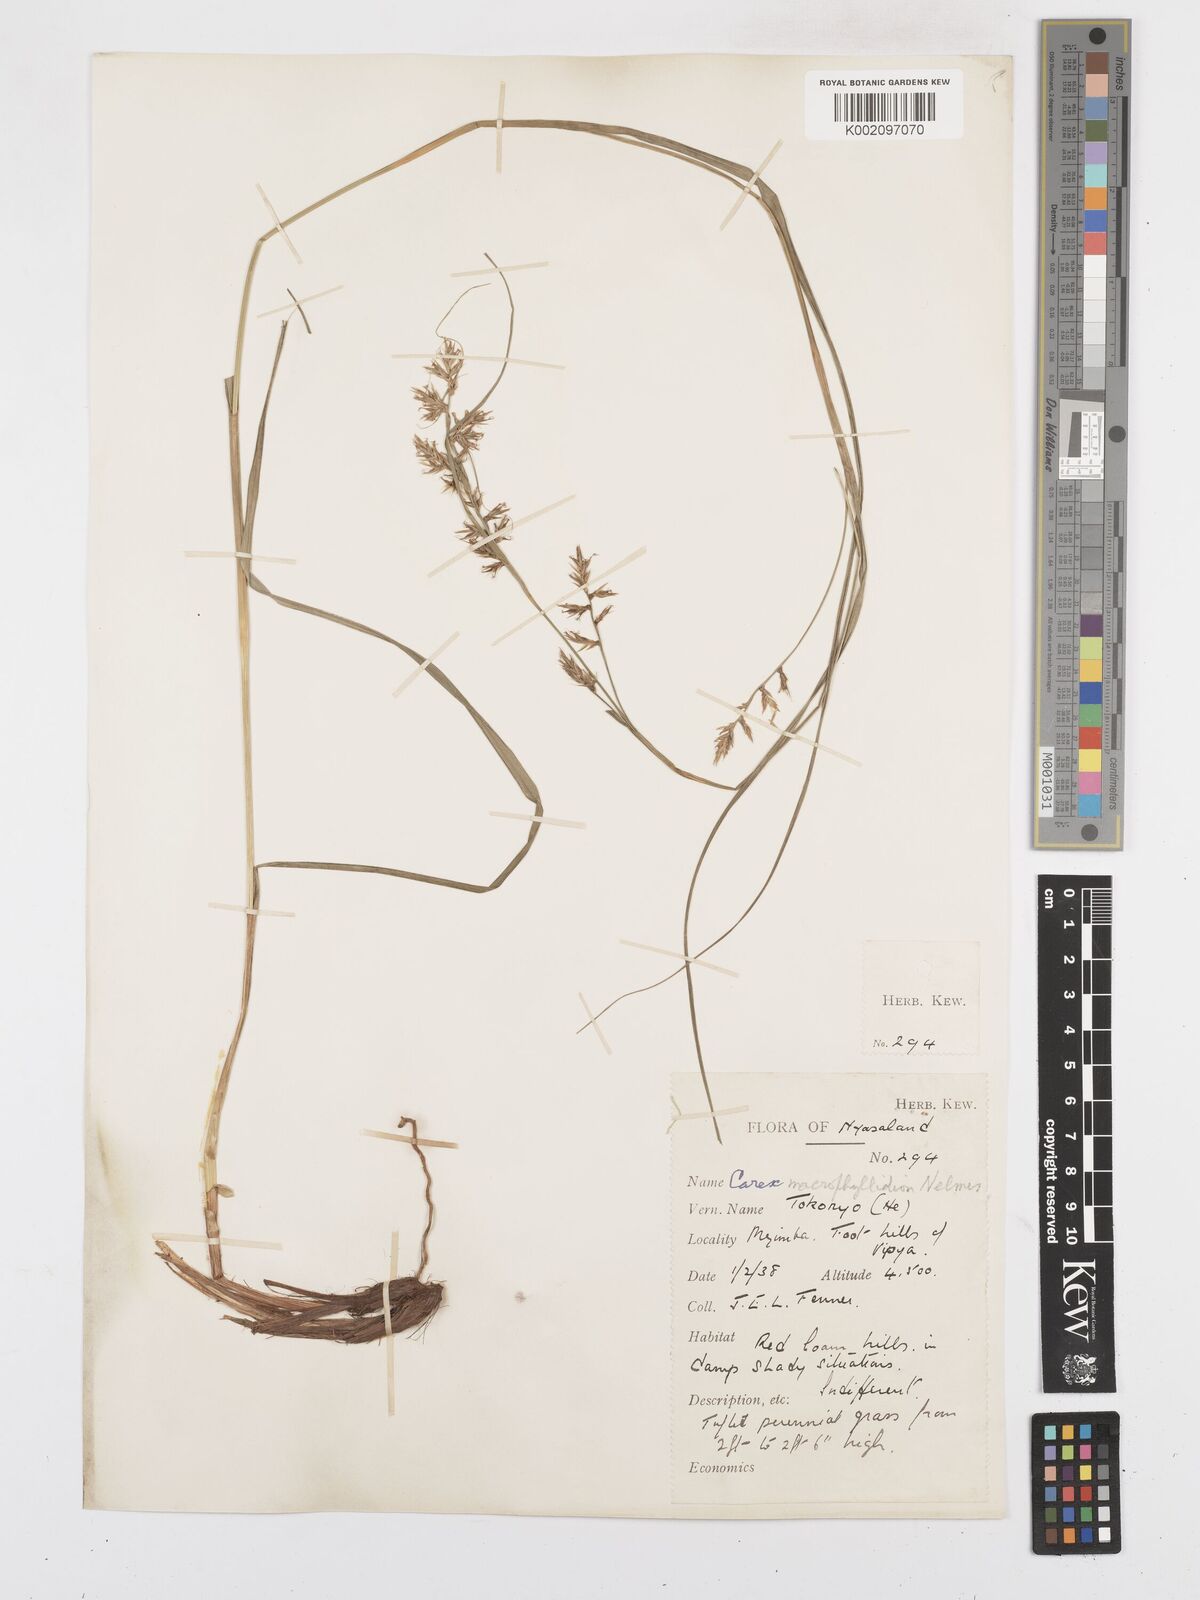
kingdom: Plantae
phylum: Tracheophyta
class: Liliopsida
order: Poales
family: Cyperaceae
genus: Carex
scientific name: Carex macrophyllidion
